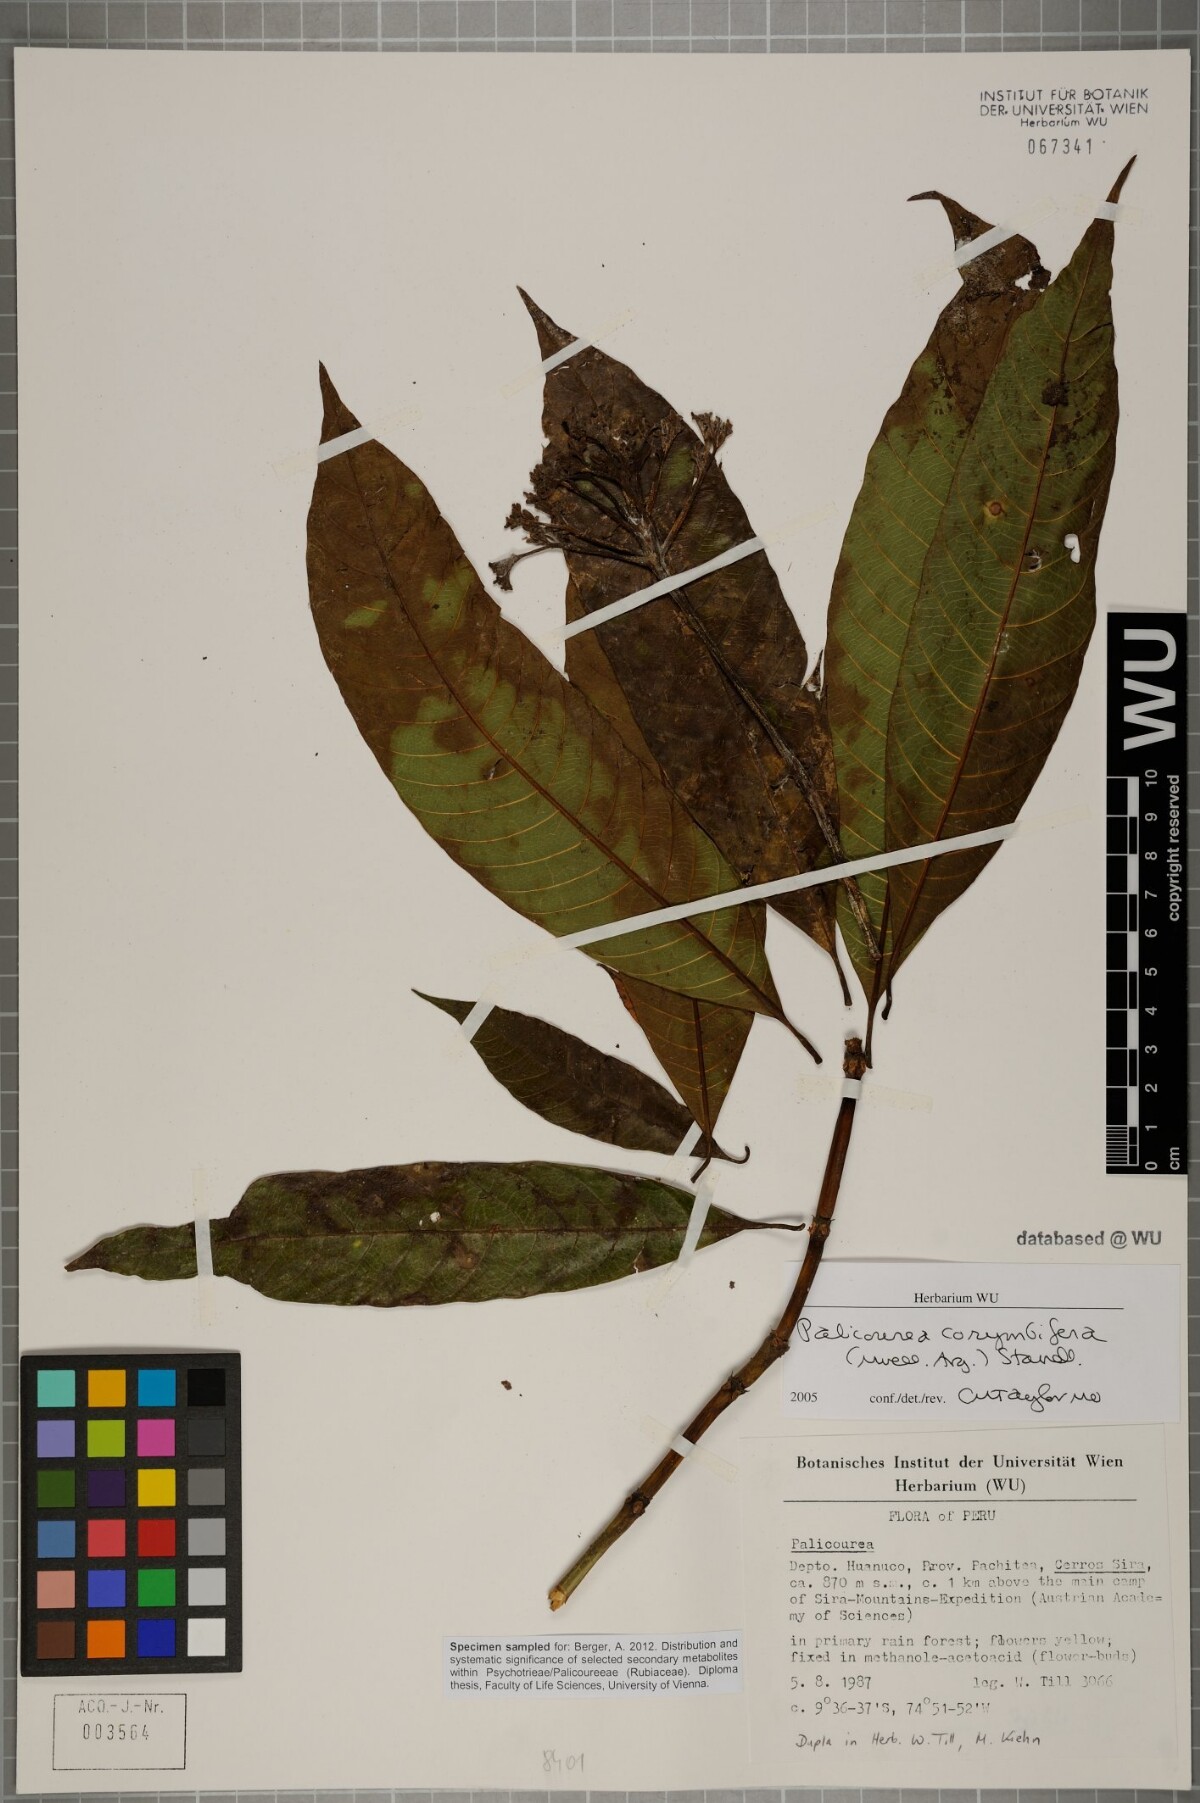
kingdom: Plantae
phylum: Tracheophyta
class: Magnoliopsida
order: Gentianales
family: Rubiaceae
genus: Palicourea
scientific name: Palicourea corymbifera
